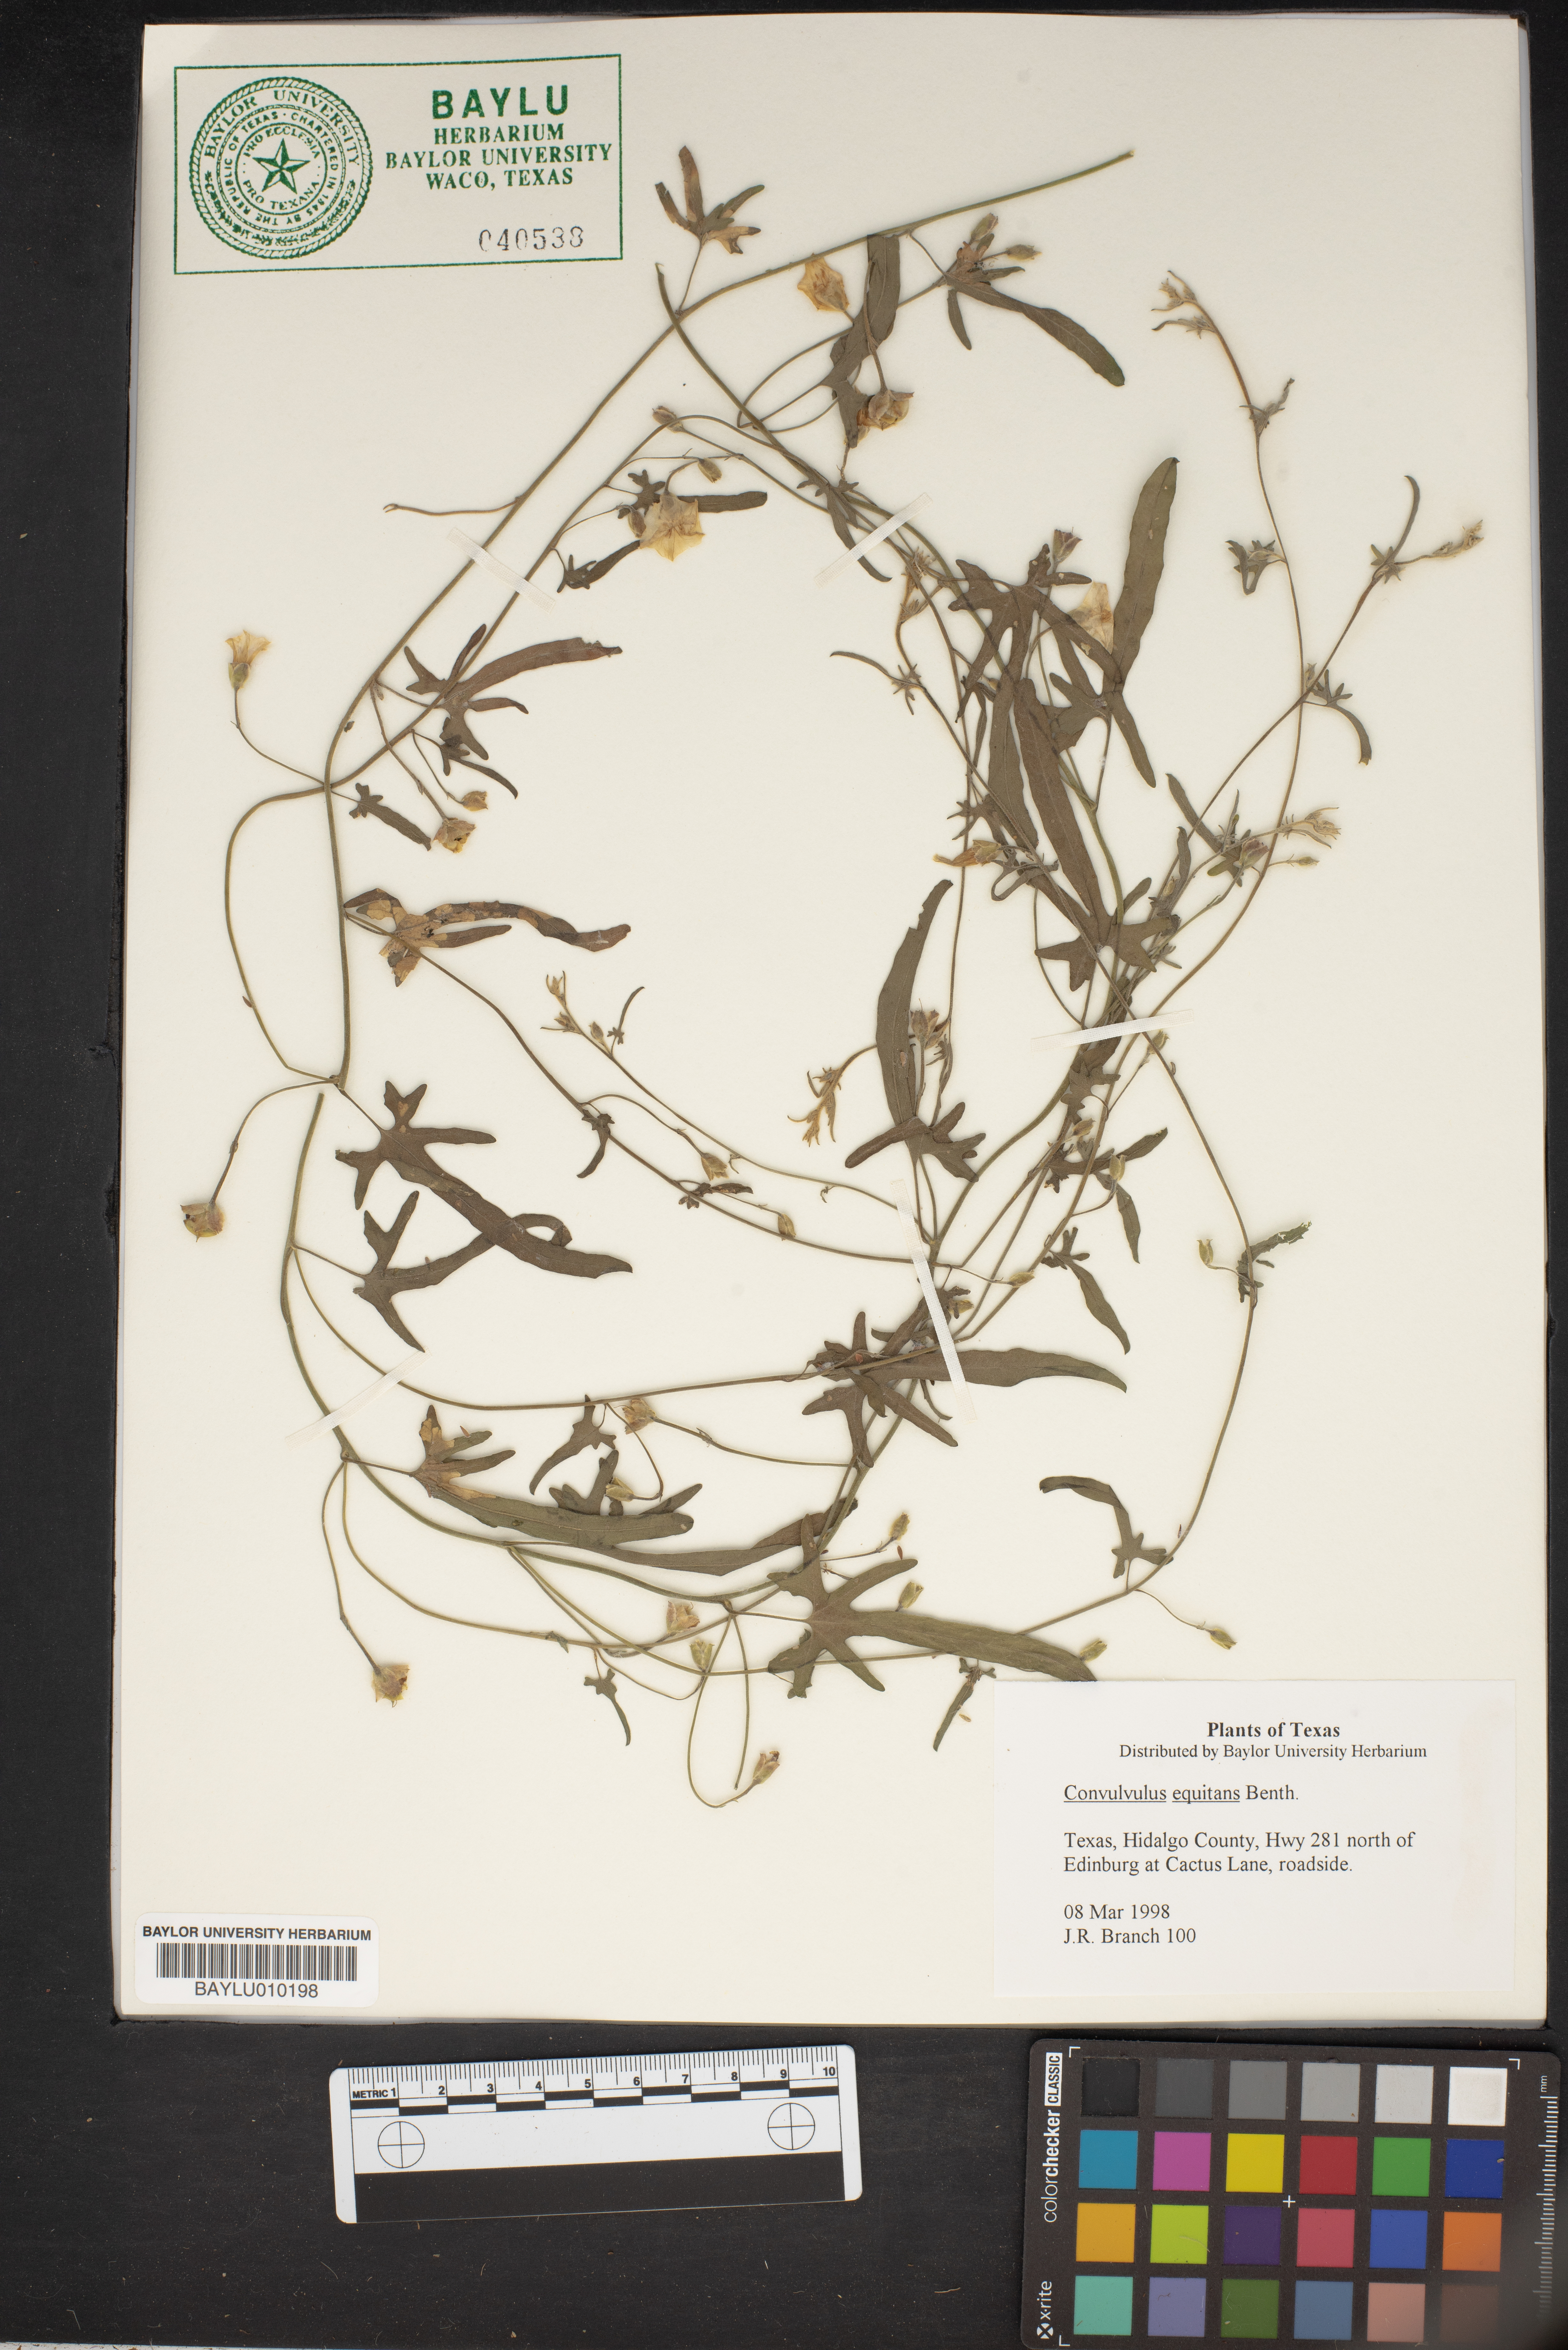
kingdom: Plantae
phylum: Tracheophyta
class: Magnoliopsida
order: Solanales
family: Convolvulaceae
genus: Convolvulus
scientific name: Convolvulus equitans
